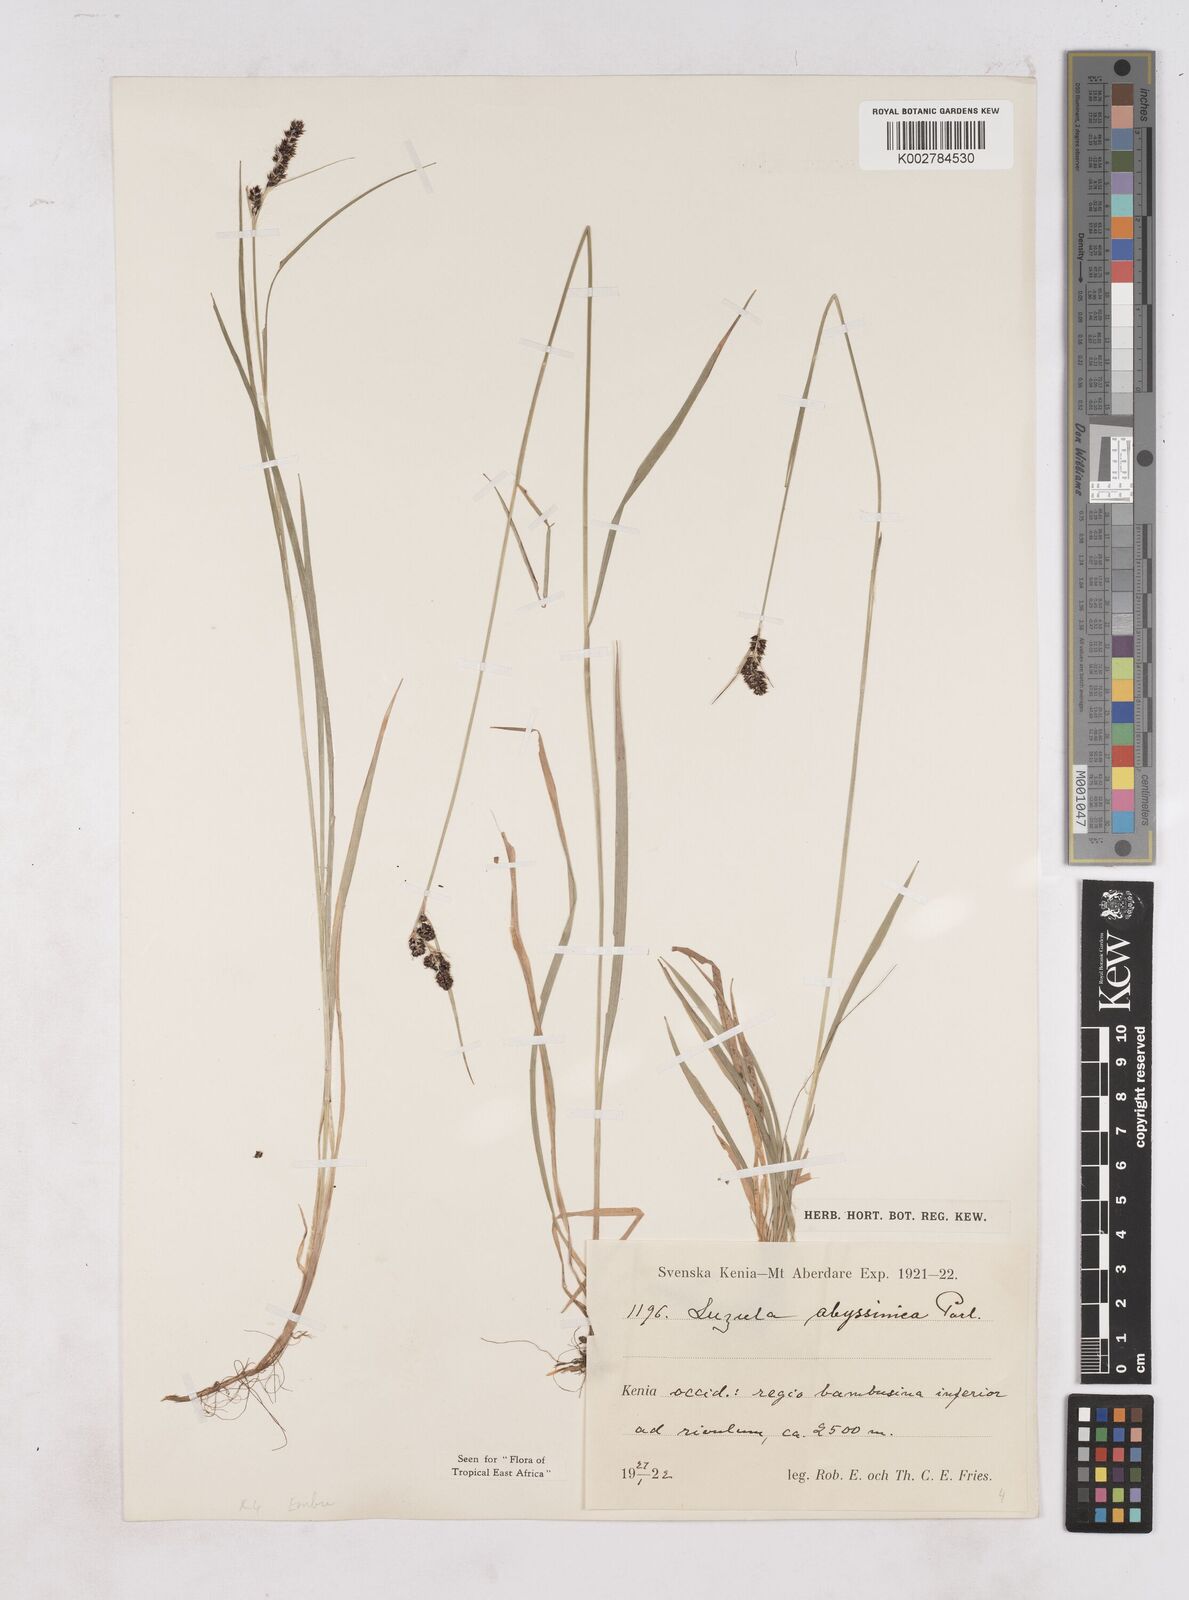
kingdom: Plantae
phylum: Tracheophyta
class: Liliopsida
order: Poales
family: Juncaceae
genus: Luzula
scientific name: Luzula abyssinica
